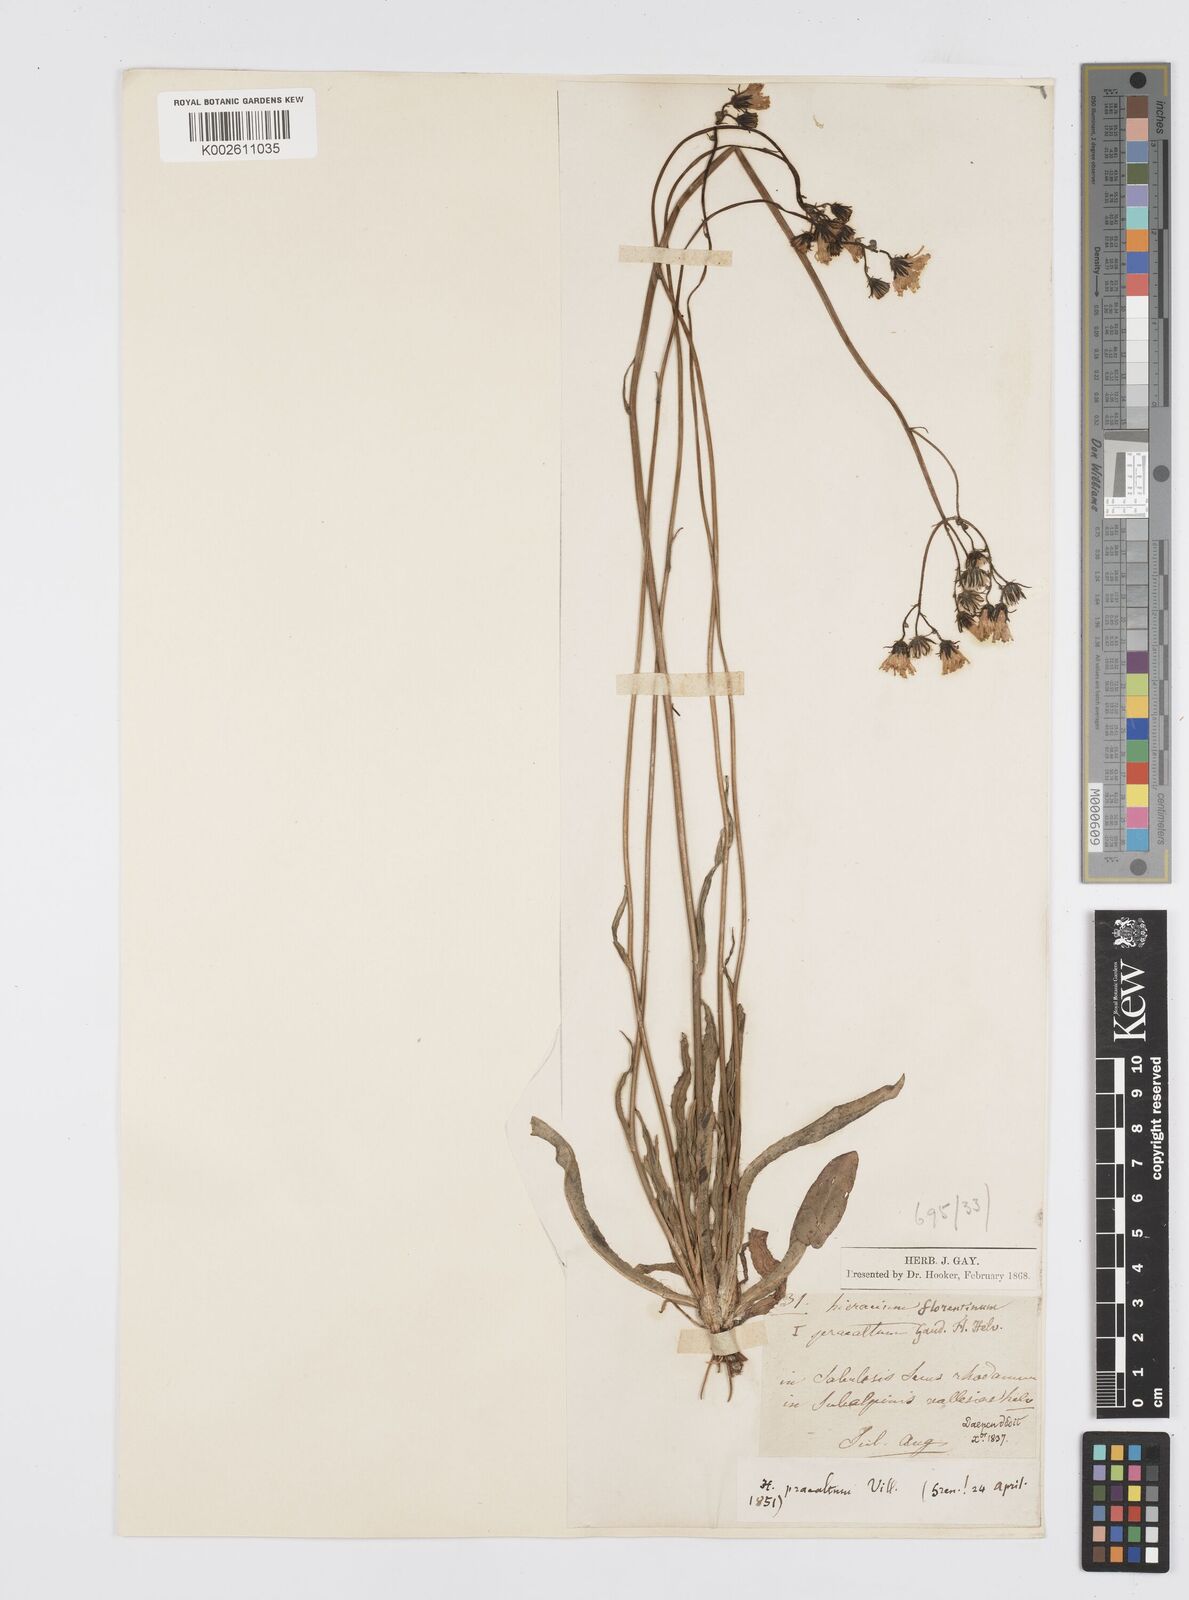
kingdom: Plantae
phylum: Tracheophyta
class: Magnoliopsida
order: Asterales
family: Asteraceae
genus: Pilosella
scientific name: Pilosella piloselloides
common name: Glaucous king-devil
